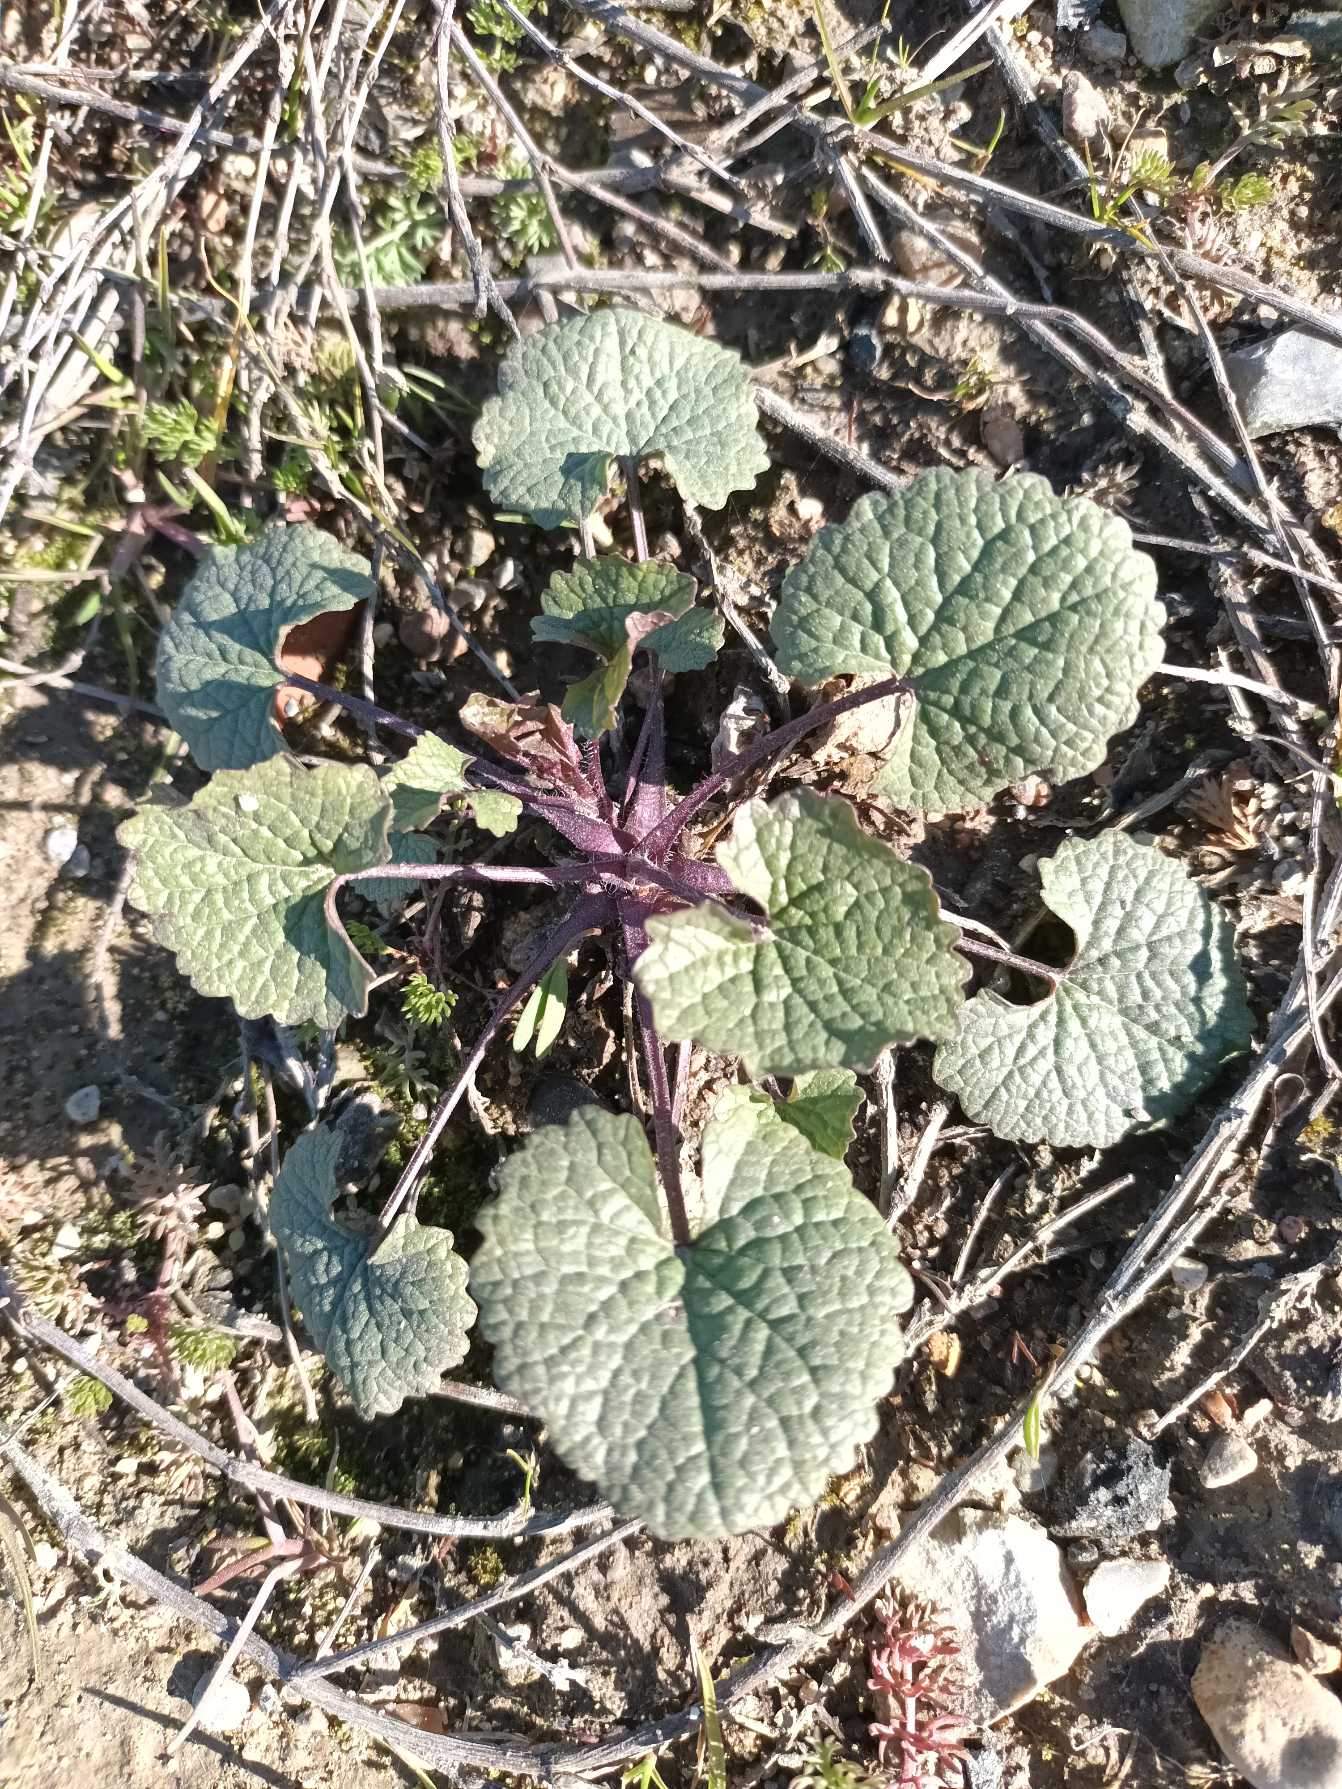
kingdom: Plantae
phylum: Tracheophyta
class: Magnoliopsida
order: Brassicales
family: Brassicaceae
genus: Alliaria
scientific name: Alliaria petiolata
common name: Løgkarse
